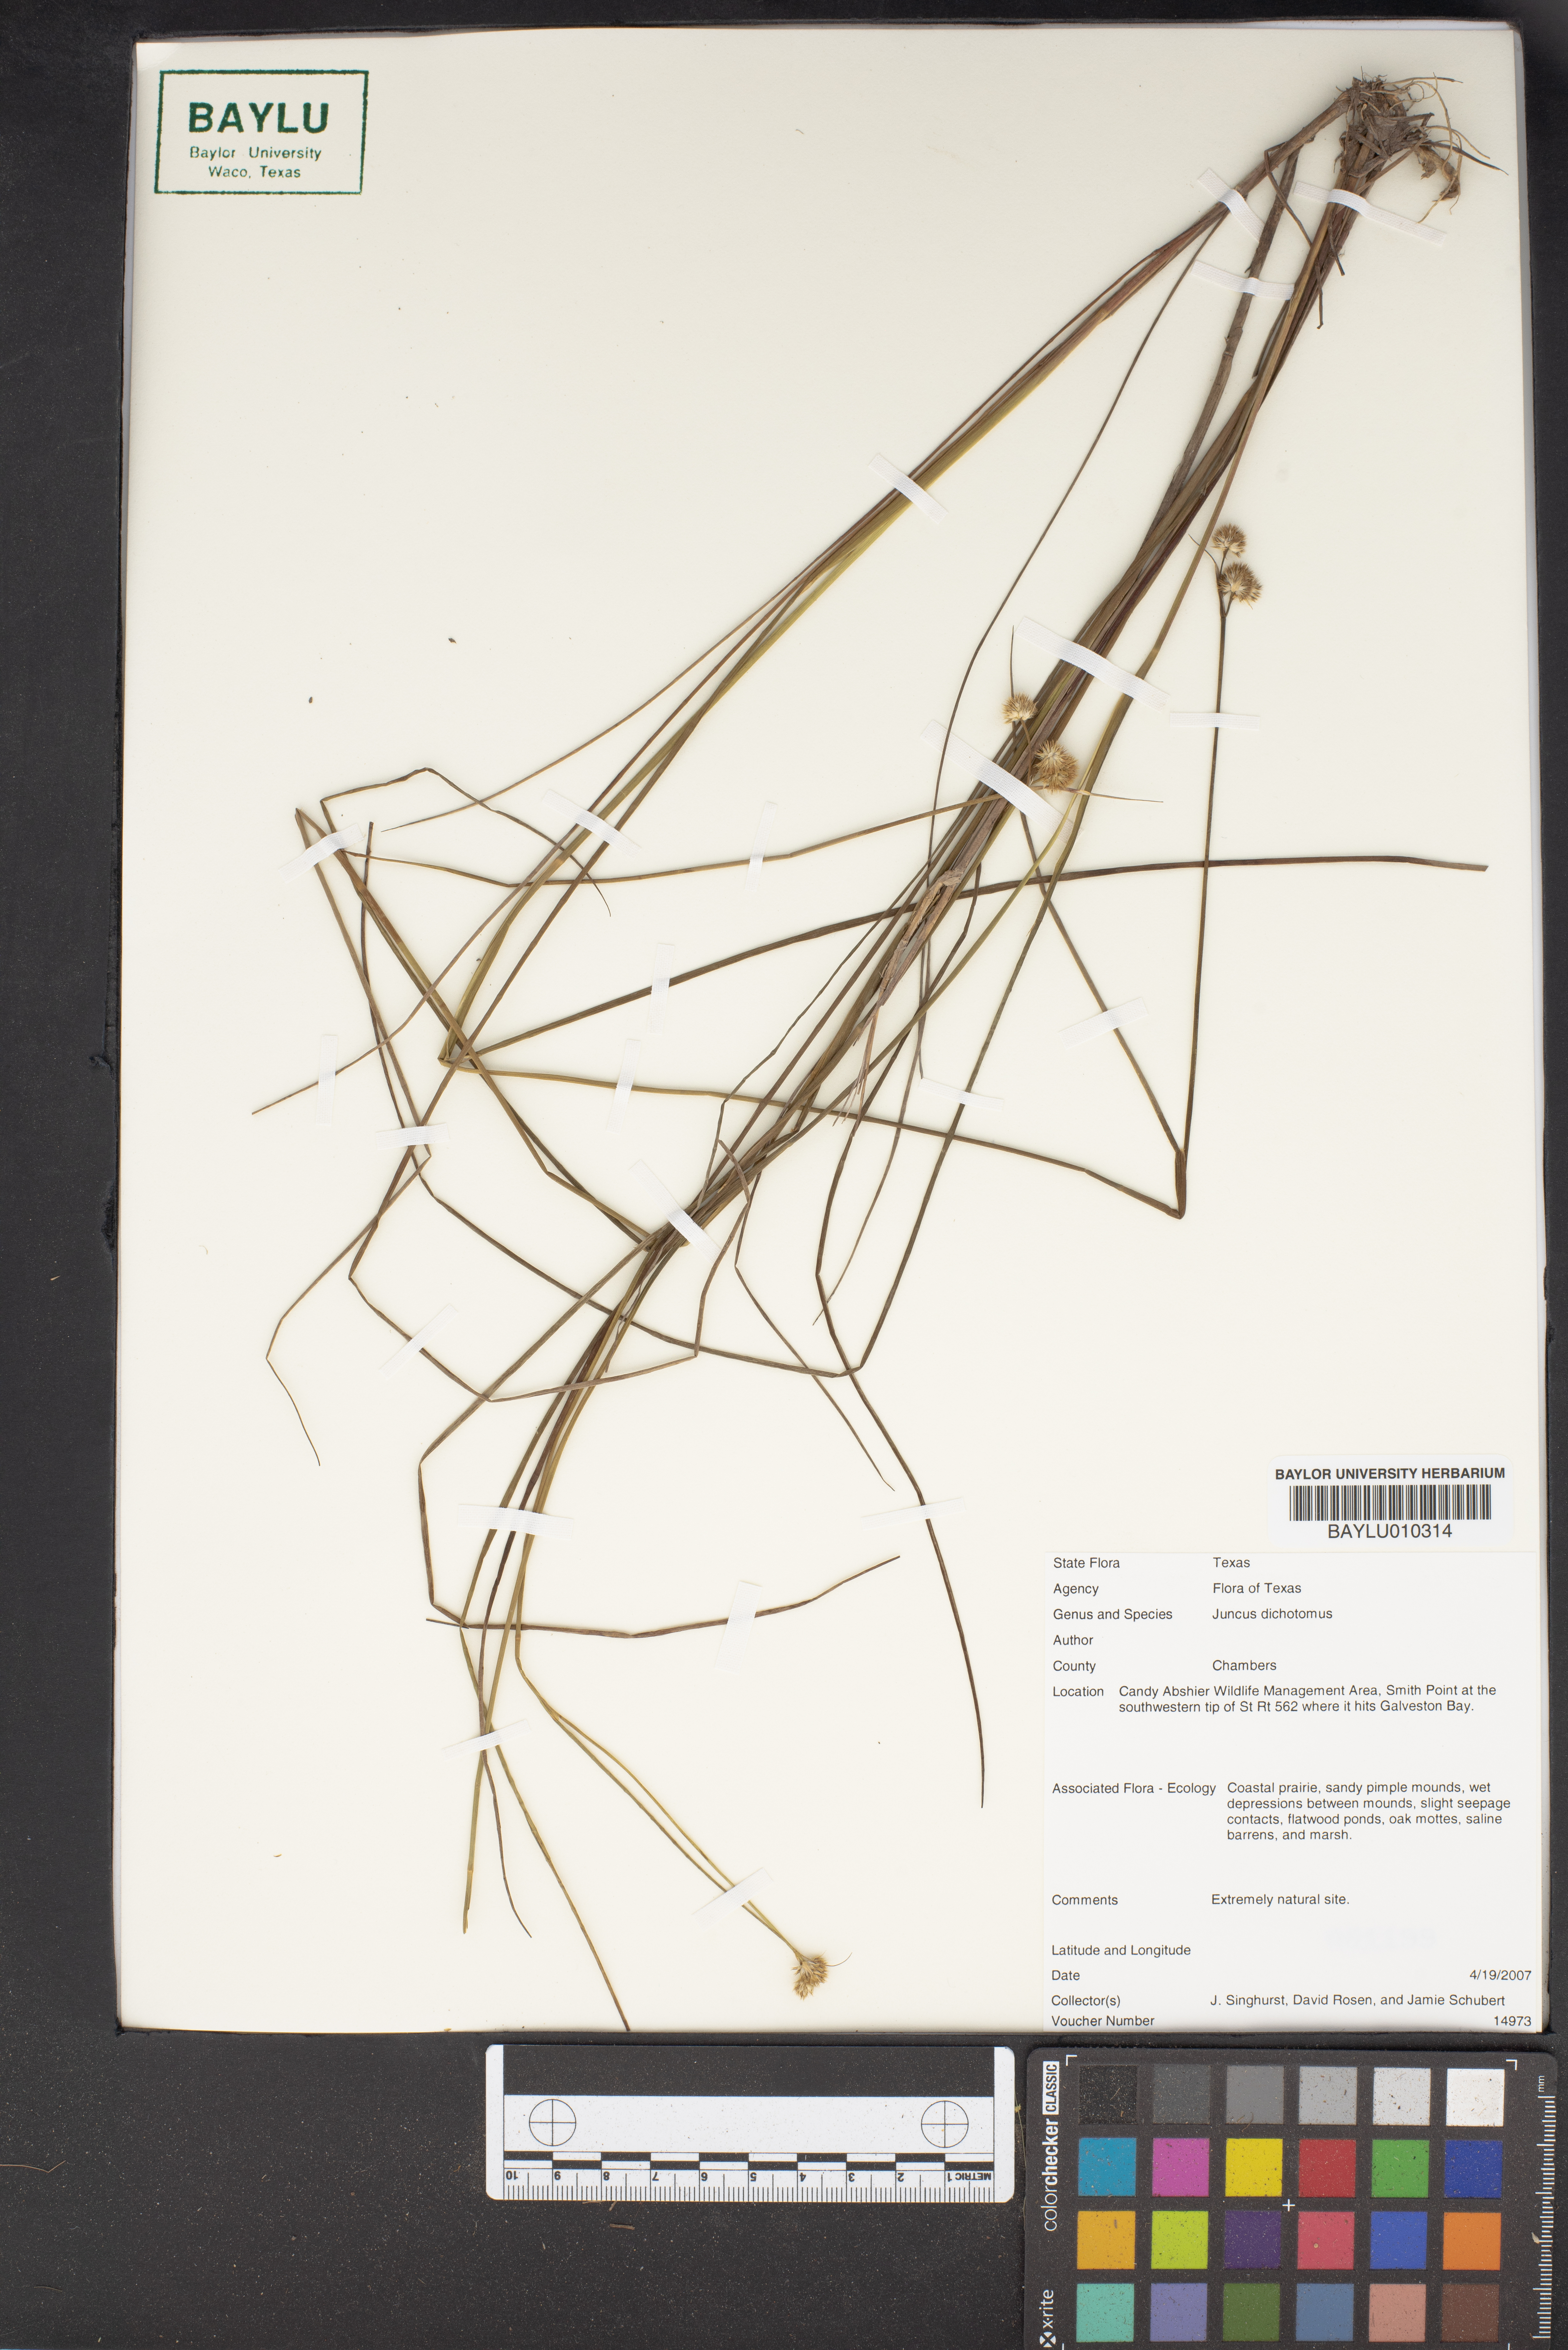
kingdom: Plantae
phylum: Tracheophyta
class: Liliopsida
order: Poales
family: Juncaceae
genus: Juncus
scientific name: Juncus dichotomus
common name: Forked rush
